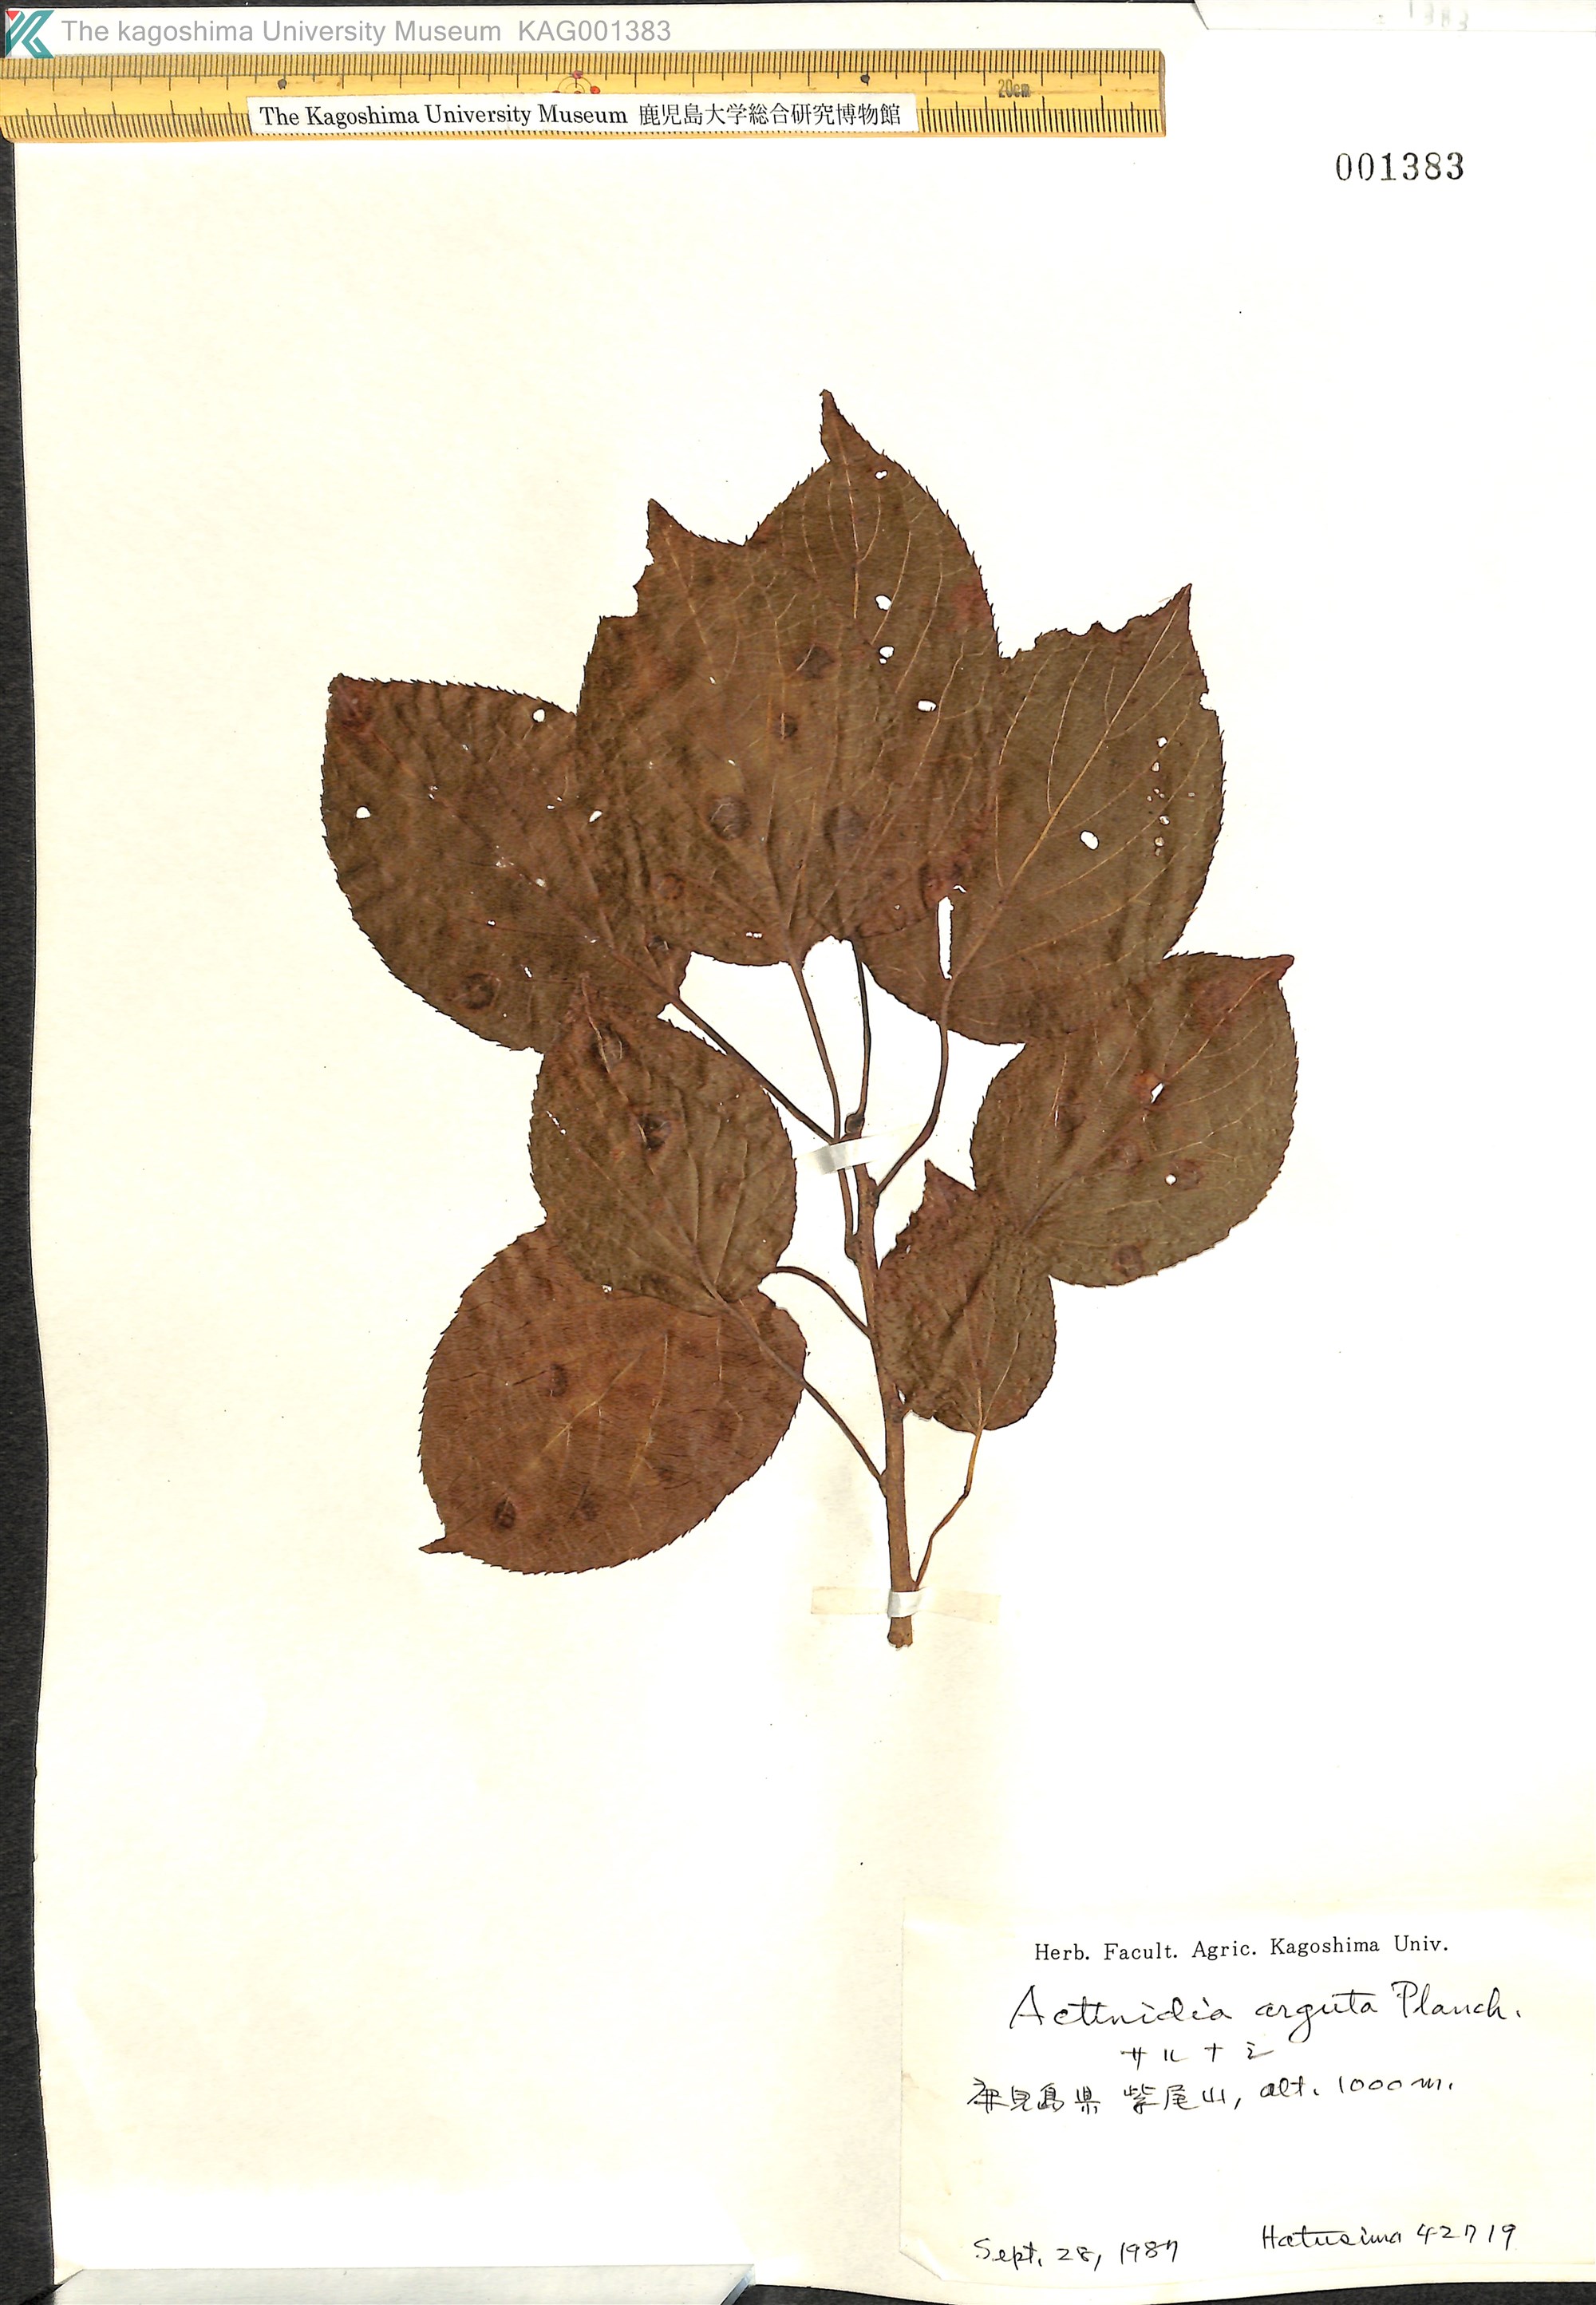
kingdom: Plantae
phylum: Tracheophyta
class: Magnoliopsida
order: Ericales
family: Actinidiaceae
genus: Actinidia
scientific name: Actinidia arguta
